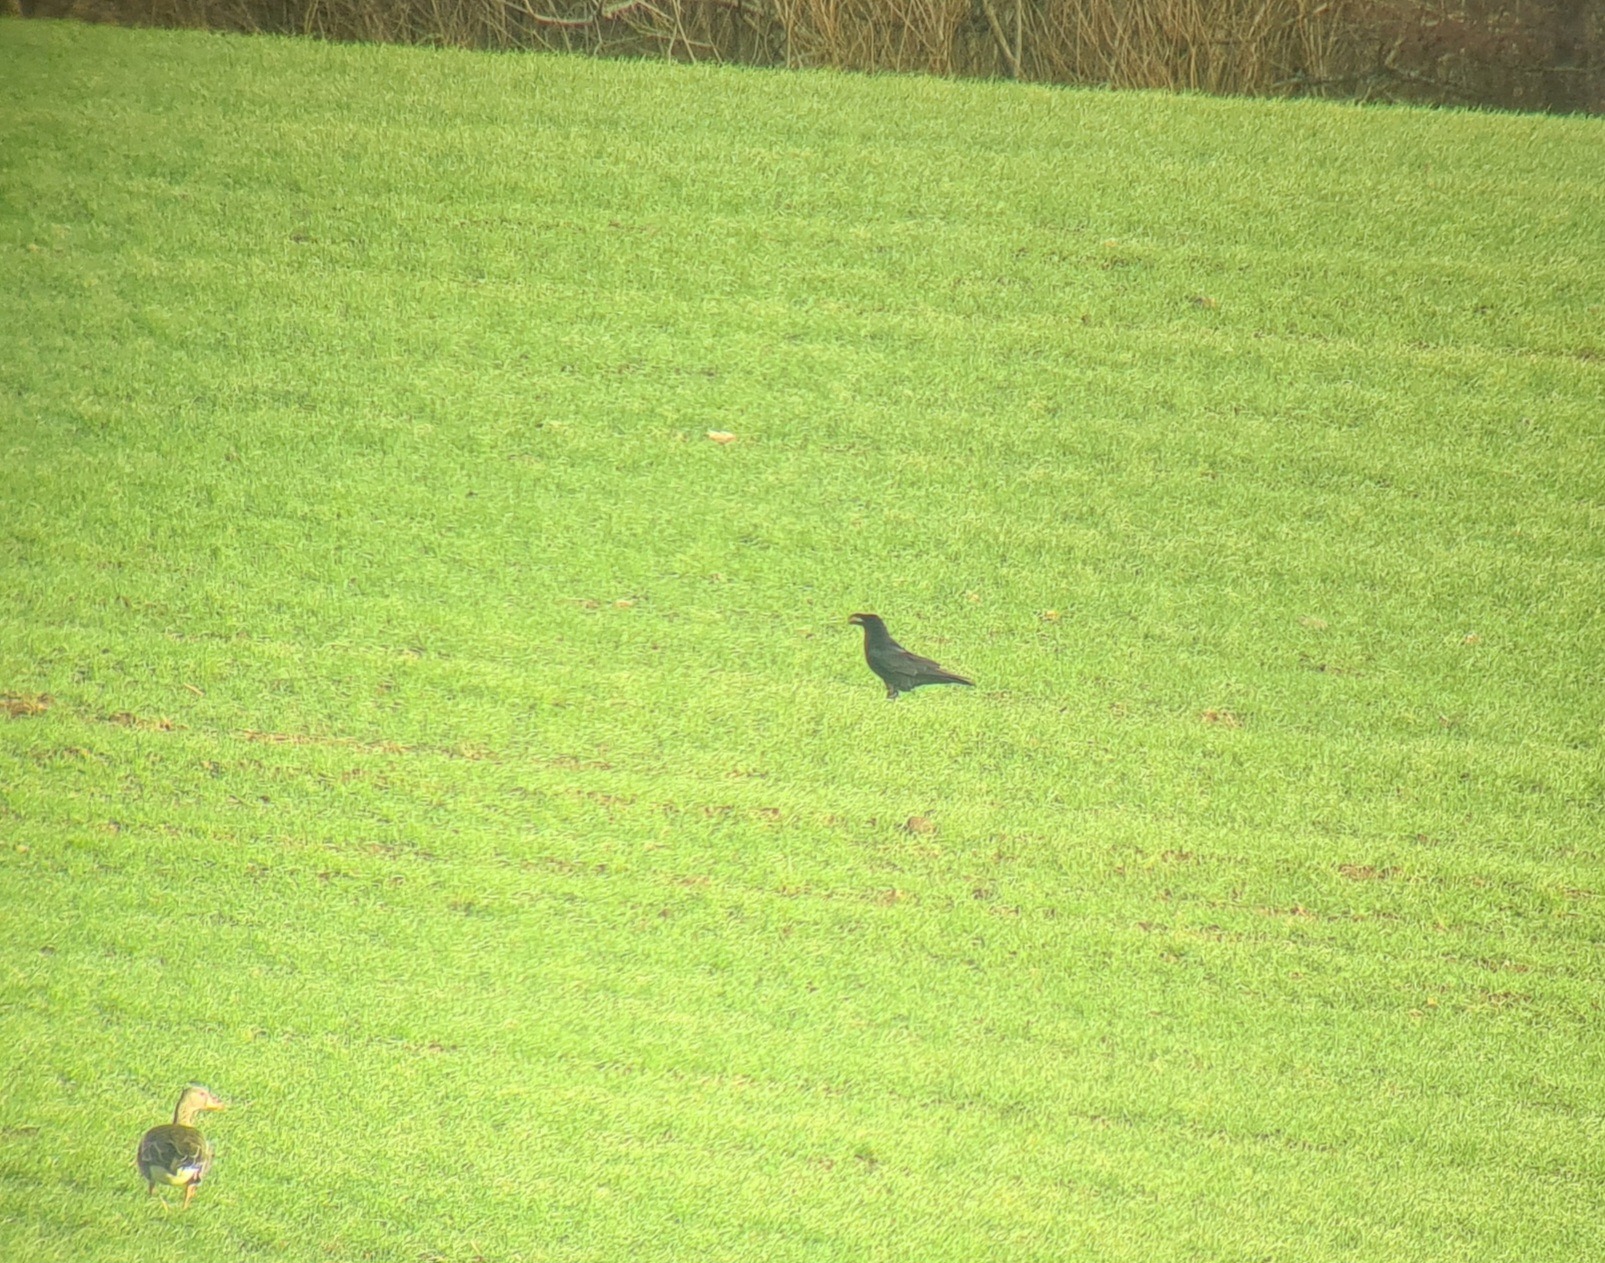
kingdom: Animalia
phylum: Chordata
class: Aves
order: Passeriformes
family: Corvidae
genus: Corvus
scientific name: Corvus corax
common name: Ravn
